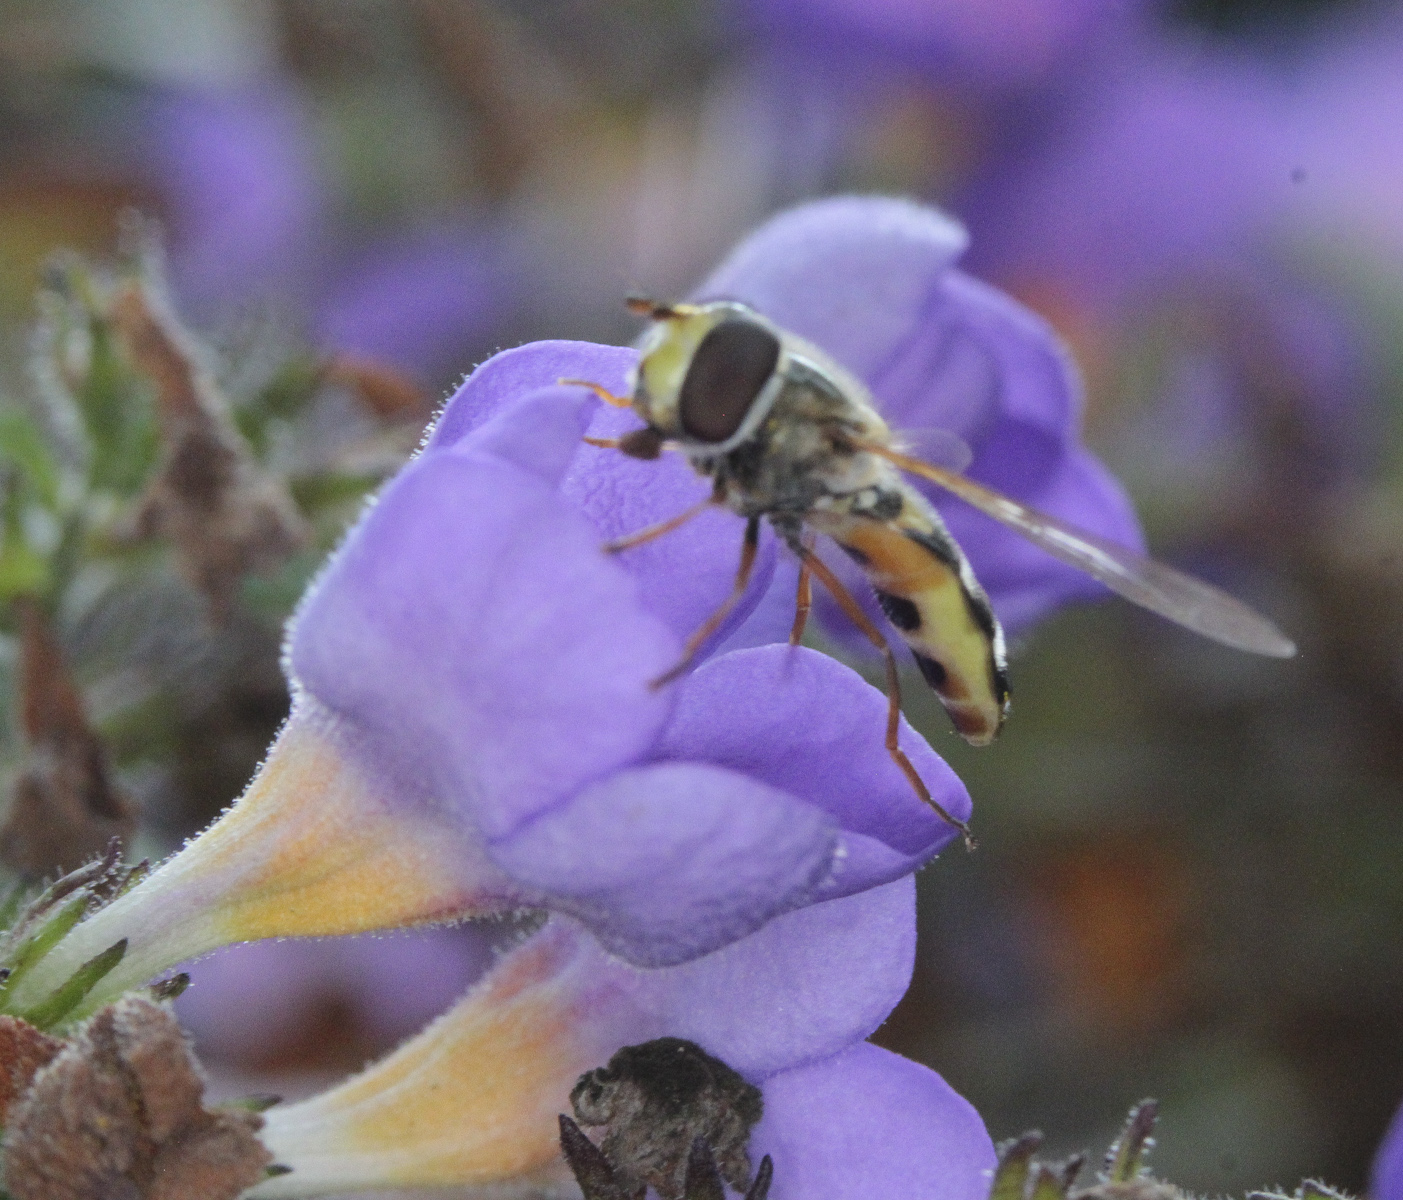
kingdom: Animalia
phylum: Arthropoda
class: Insecta
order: Diptera
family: Syrphidae
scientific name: Syrphidae
